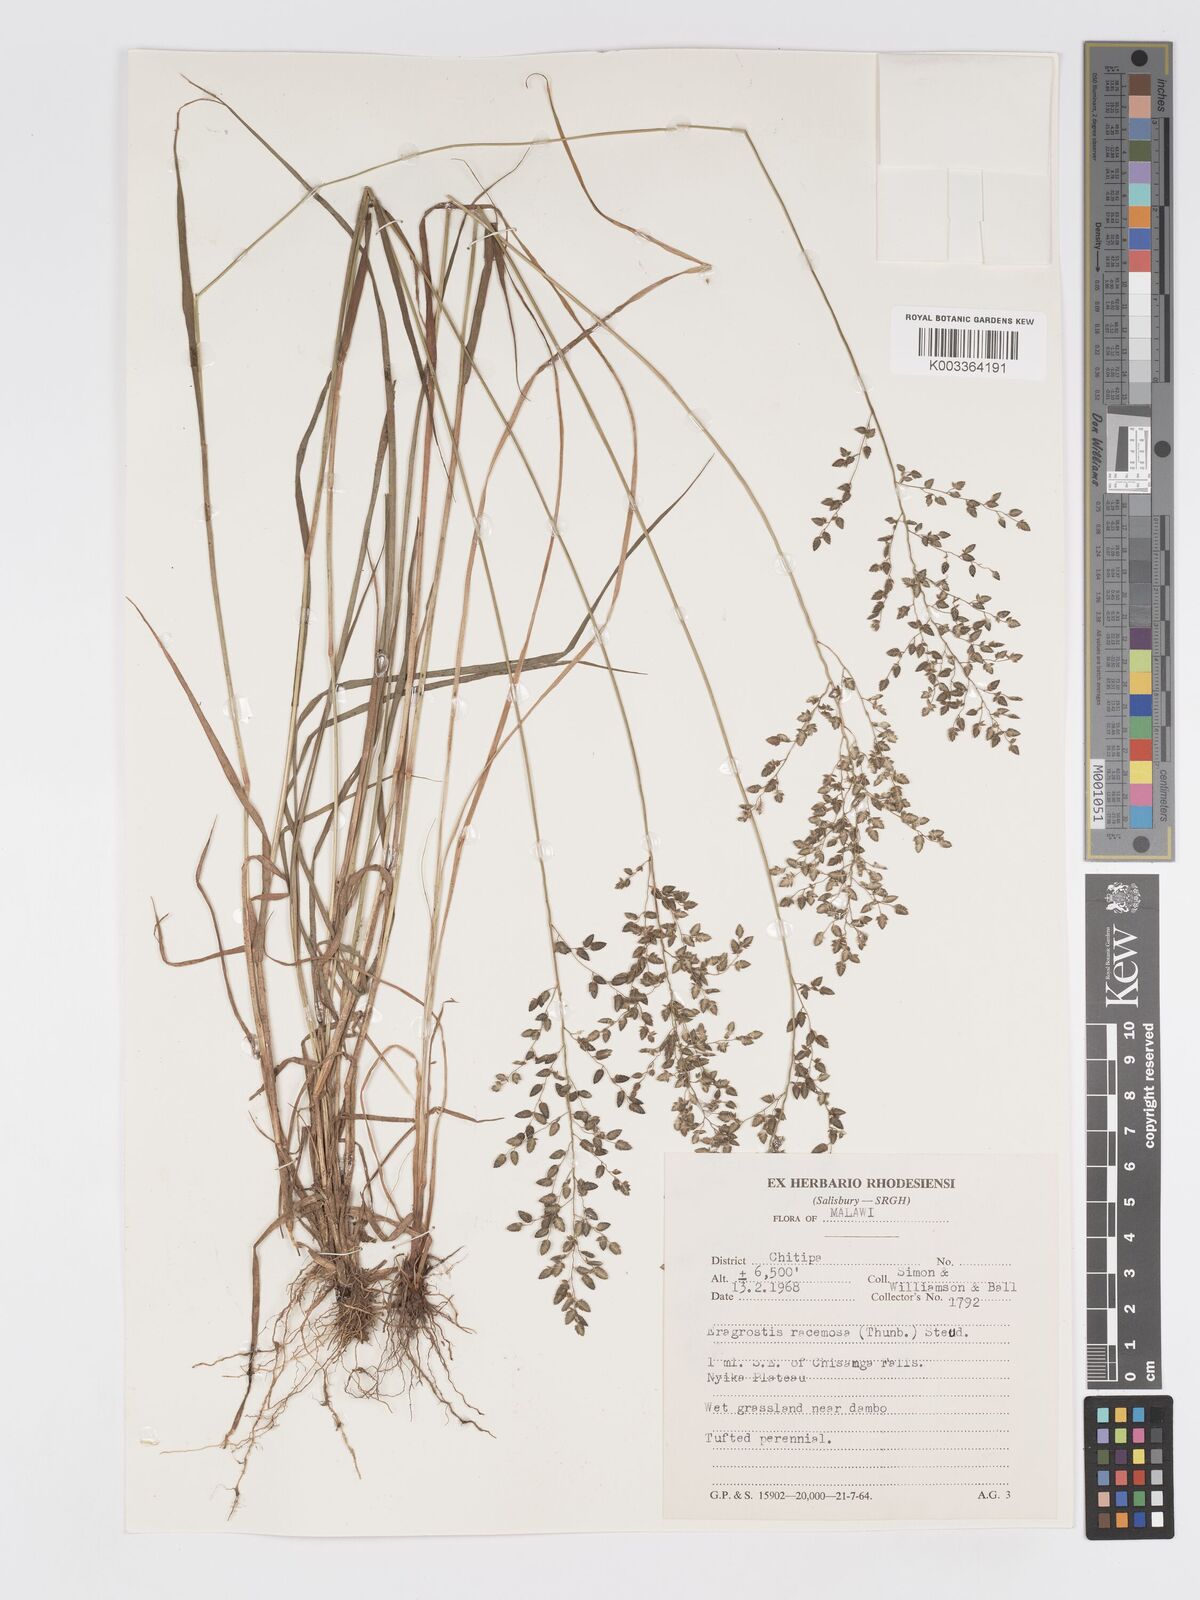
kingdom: Plantae
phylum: Tracheophyta
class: Liliopsida
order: Poales
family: Poaceae
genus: Eragrostis
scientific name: Eragrostis racemosa
